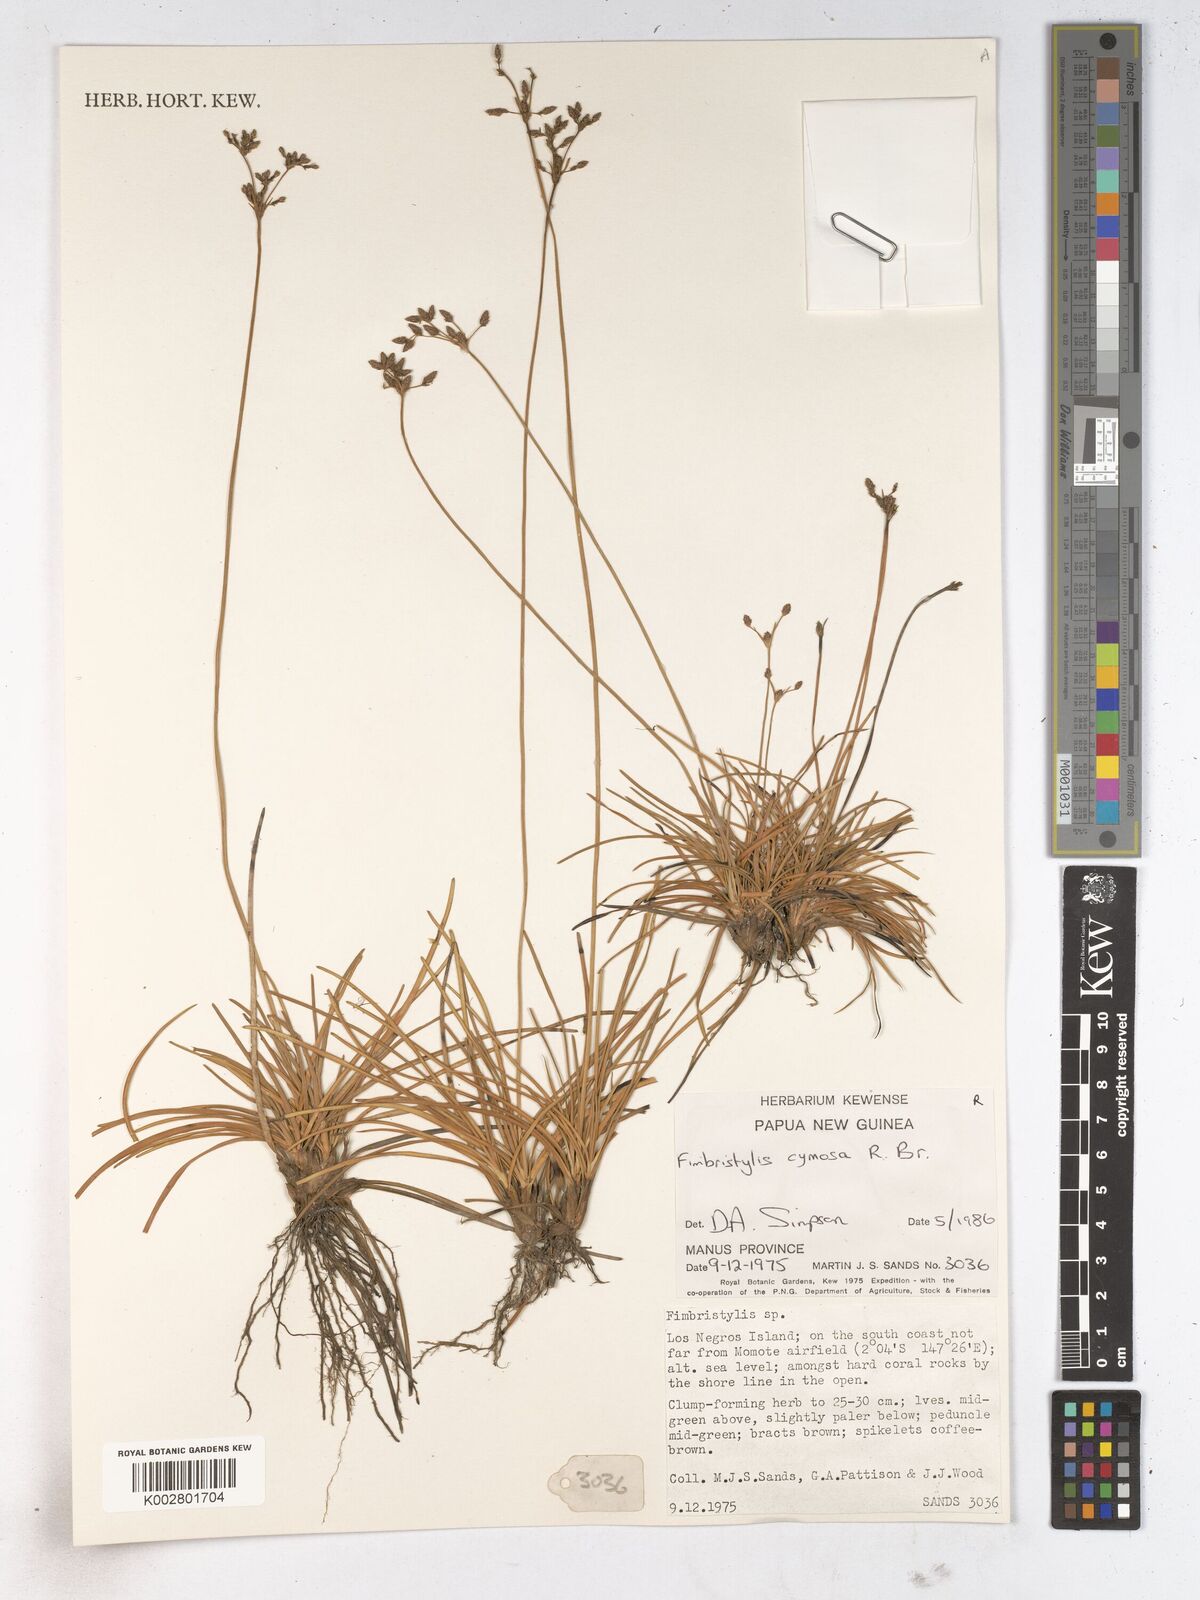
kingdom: Plantae
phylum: Tracheophyta
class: Liliopsida
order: Poales
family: Cyperaceae
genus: Fimbristylis
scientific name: Fimbristylis cymosa
